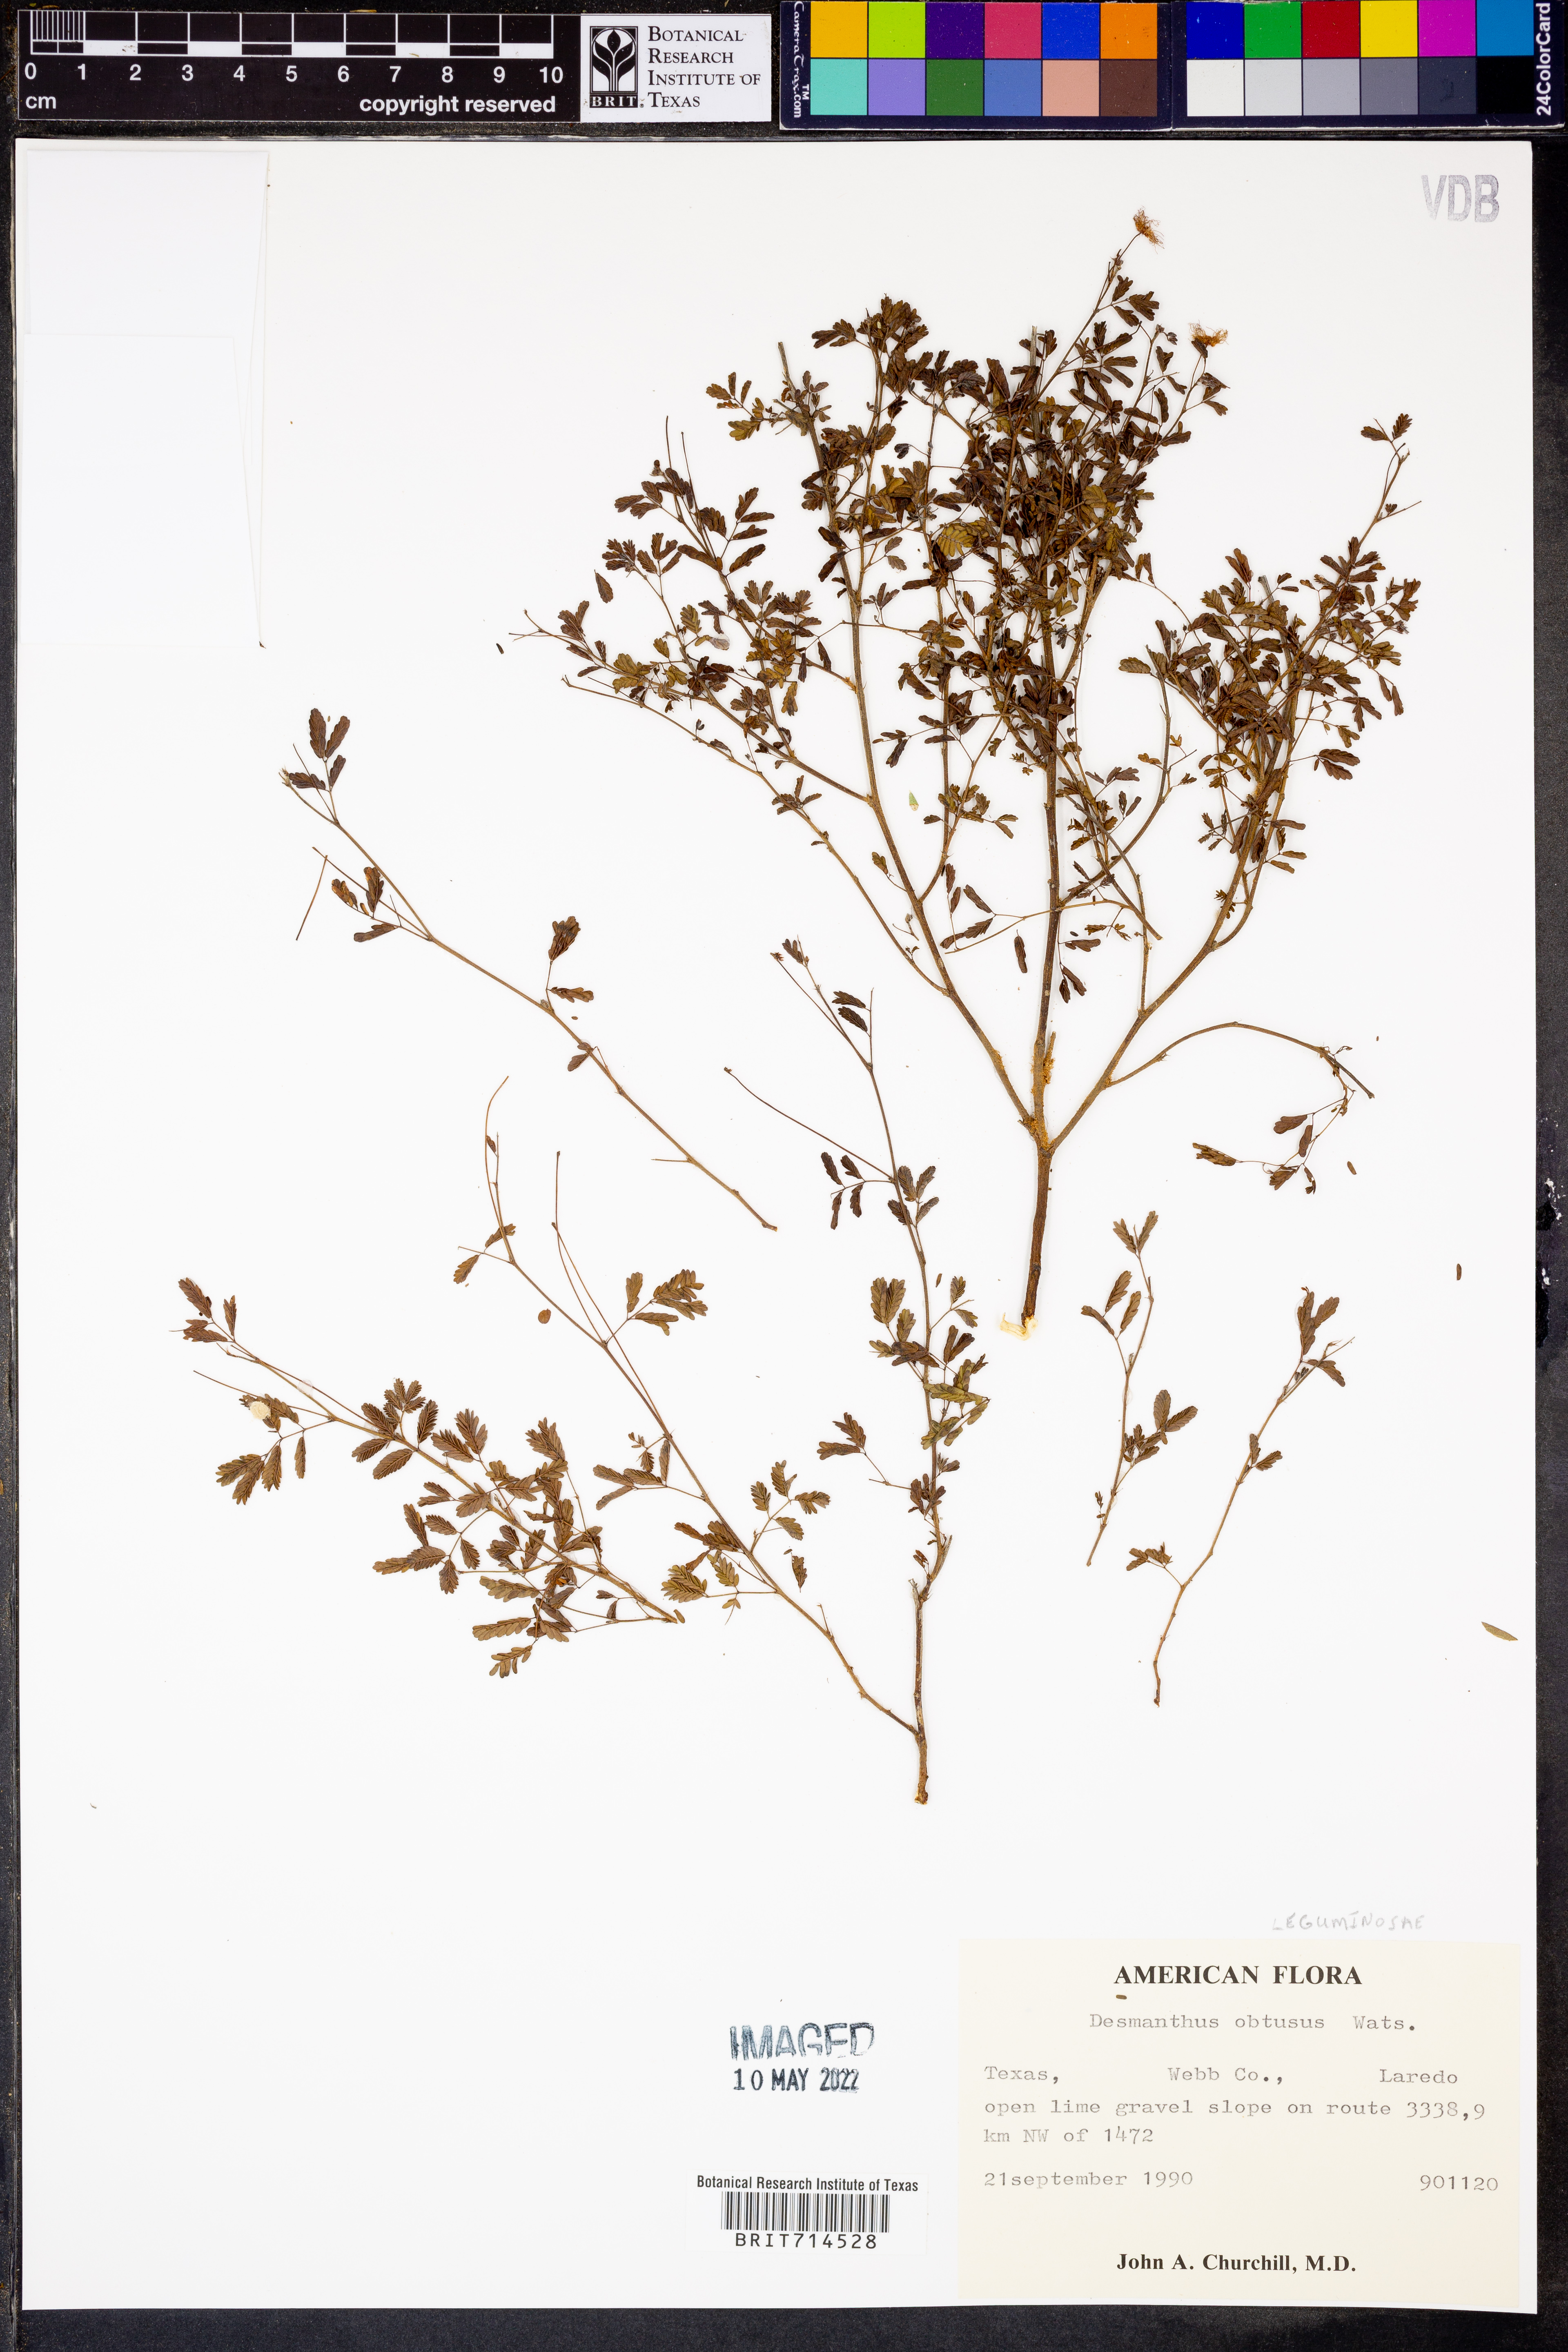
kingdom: Plantae
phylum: Tracheophyta
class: Magnoliopsida
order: Fabales
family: Fabaceae
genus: Desmanthus
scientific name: Desmanthus obtusus
